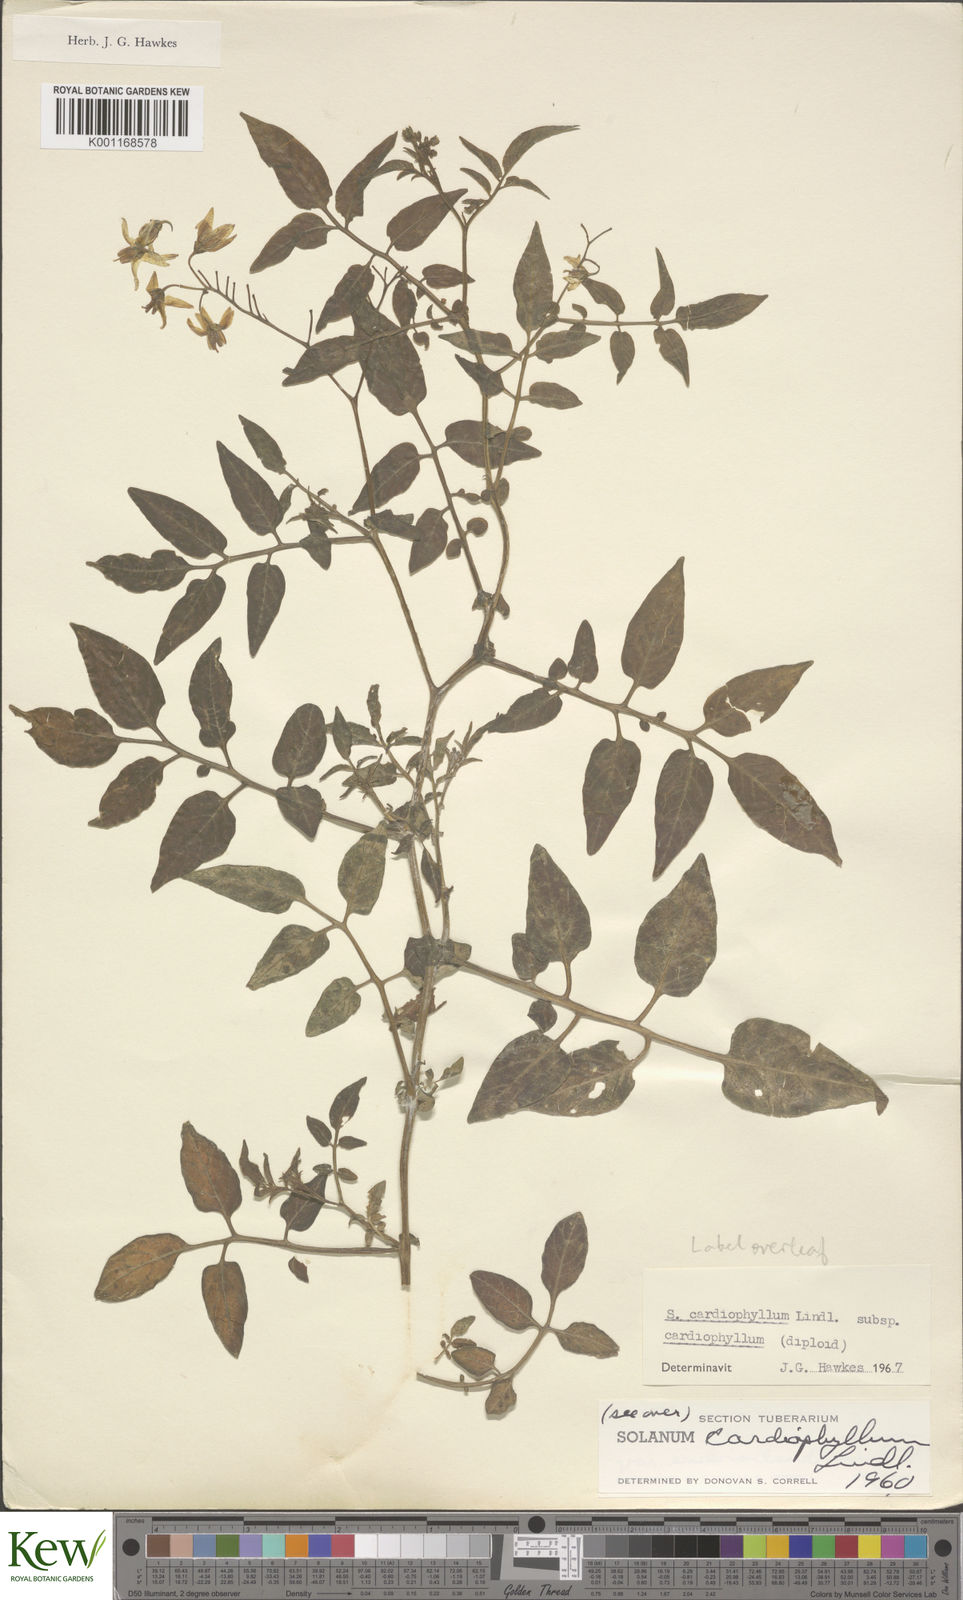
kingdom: Plantae
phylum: Tracheophyta
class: Magnoliopsida
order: Solanales
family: Solanaceae
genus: Solanum
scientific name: Solanum cardiophyllum
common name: Heartleaf horsenettle
